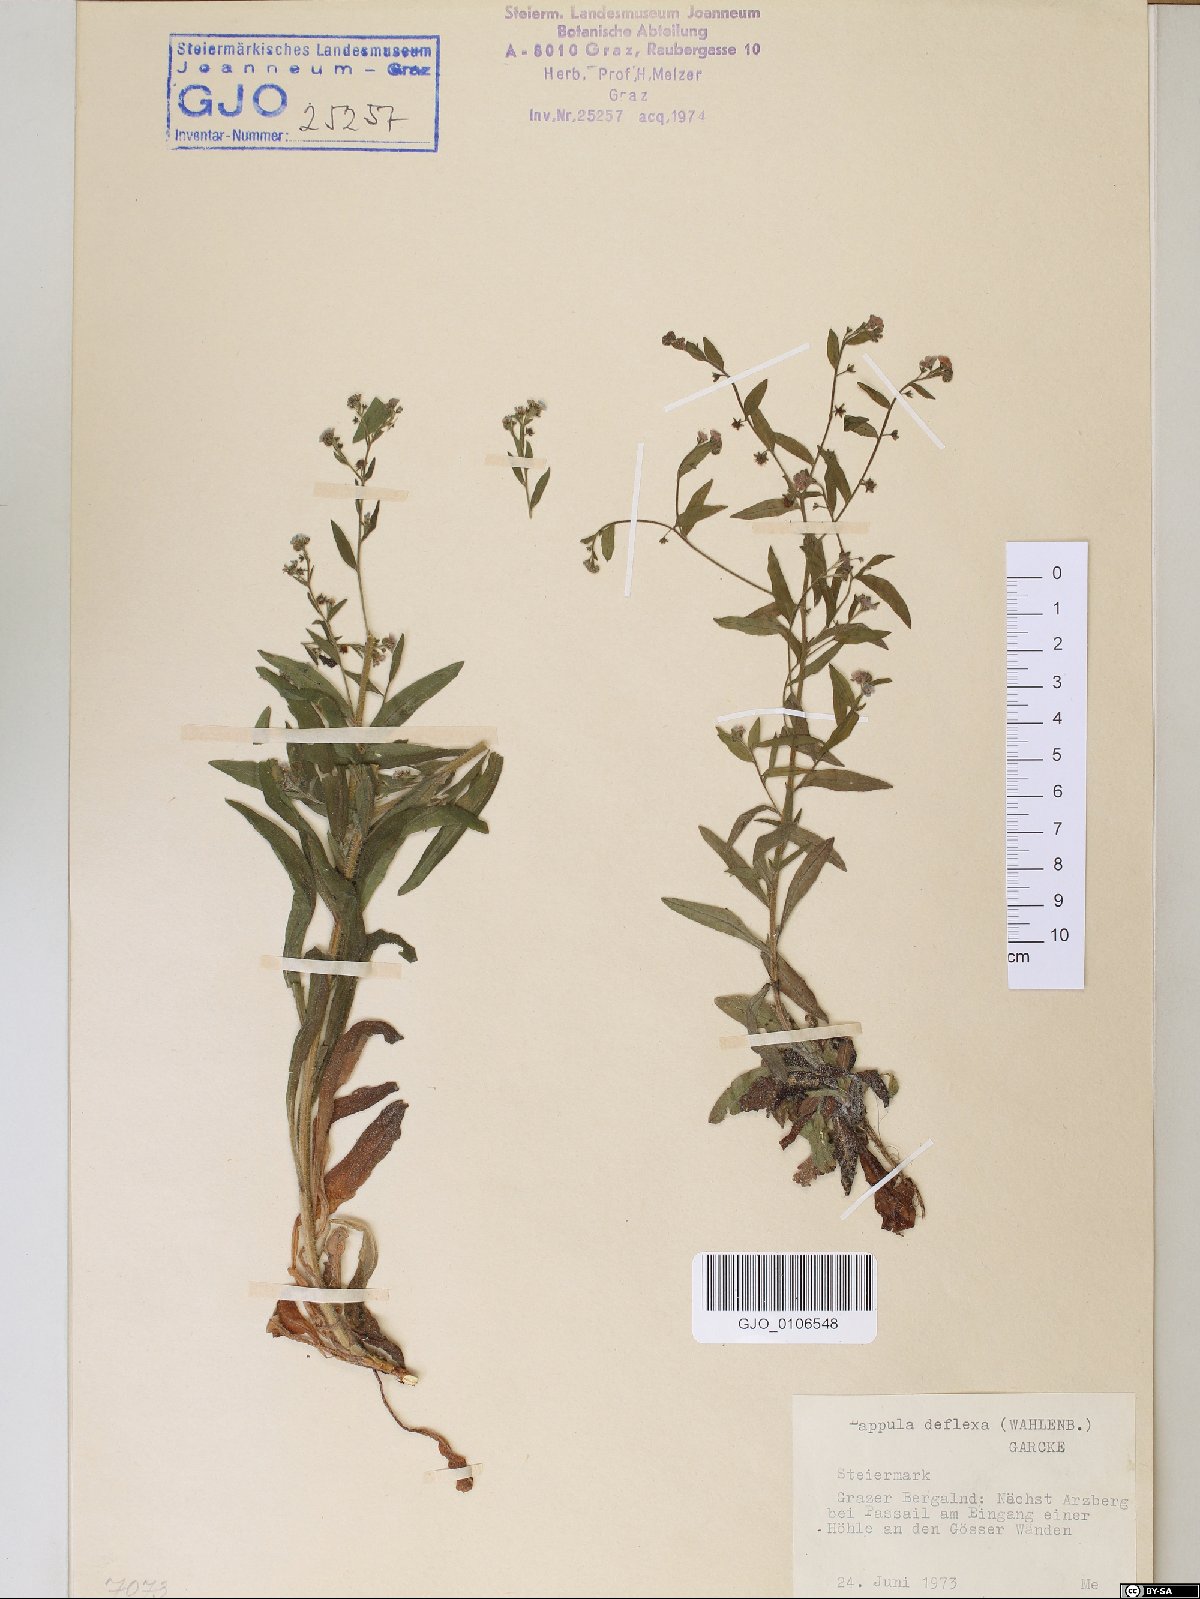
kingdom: Plantae
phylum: Tracheophyta
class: Magnoliopsida
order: Boraginales
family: Boraginaceae
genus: Hackelia
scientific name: Hackelia deflexa
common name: Nodding stickseed
